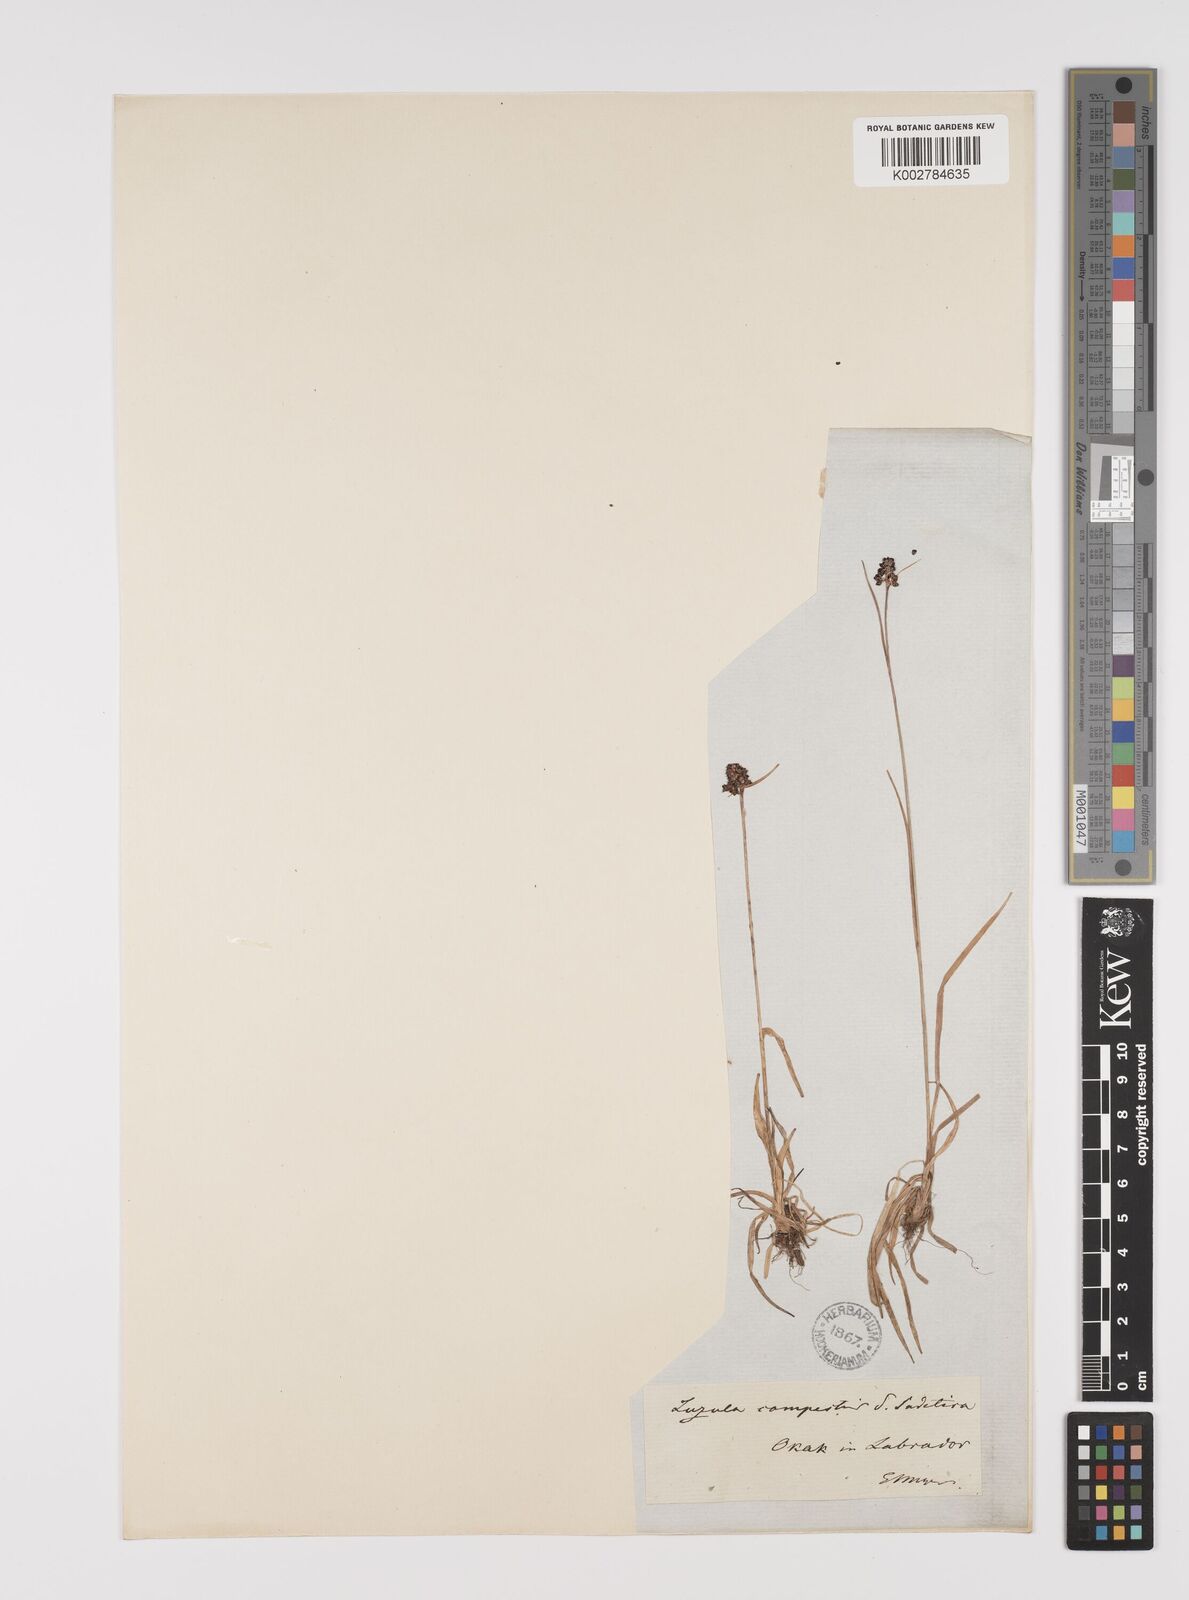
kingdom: Plantae
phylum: Tracheophyta
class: Liliopsida
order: Poales
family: Juncaceae
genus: Luzula
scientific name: Luzula campestris
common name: Field wood-rush
